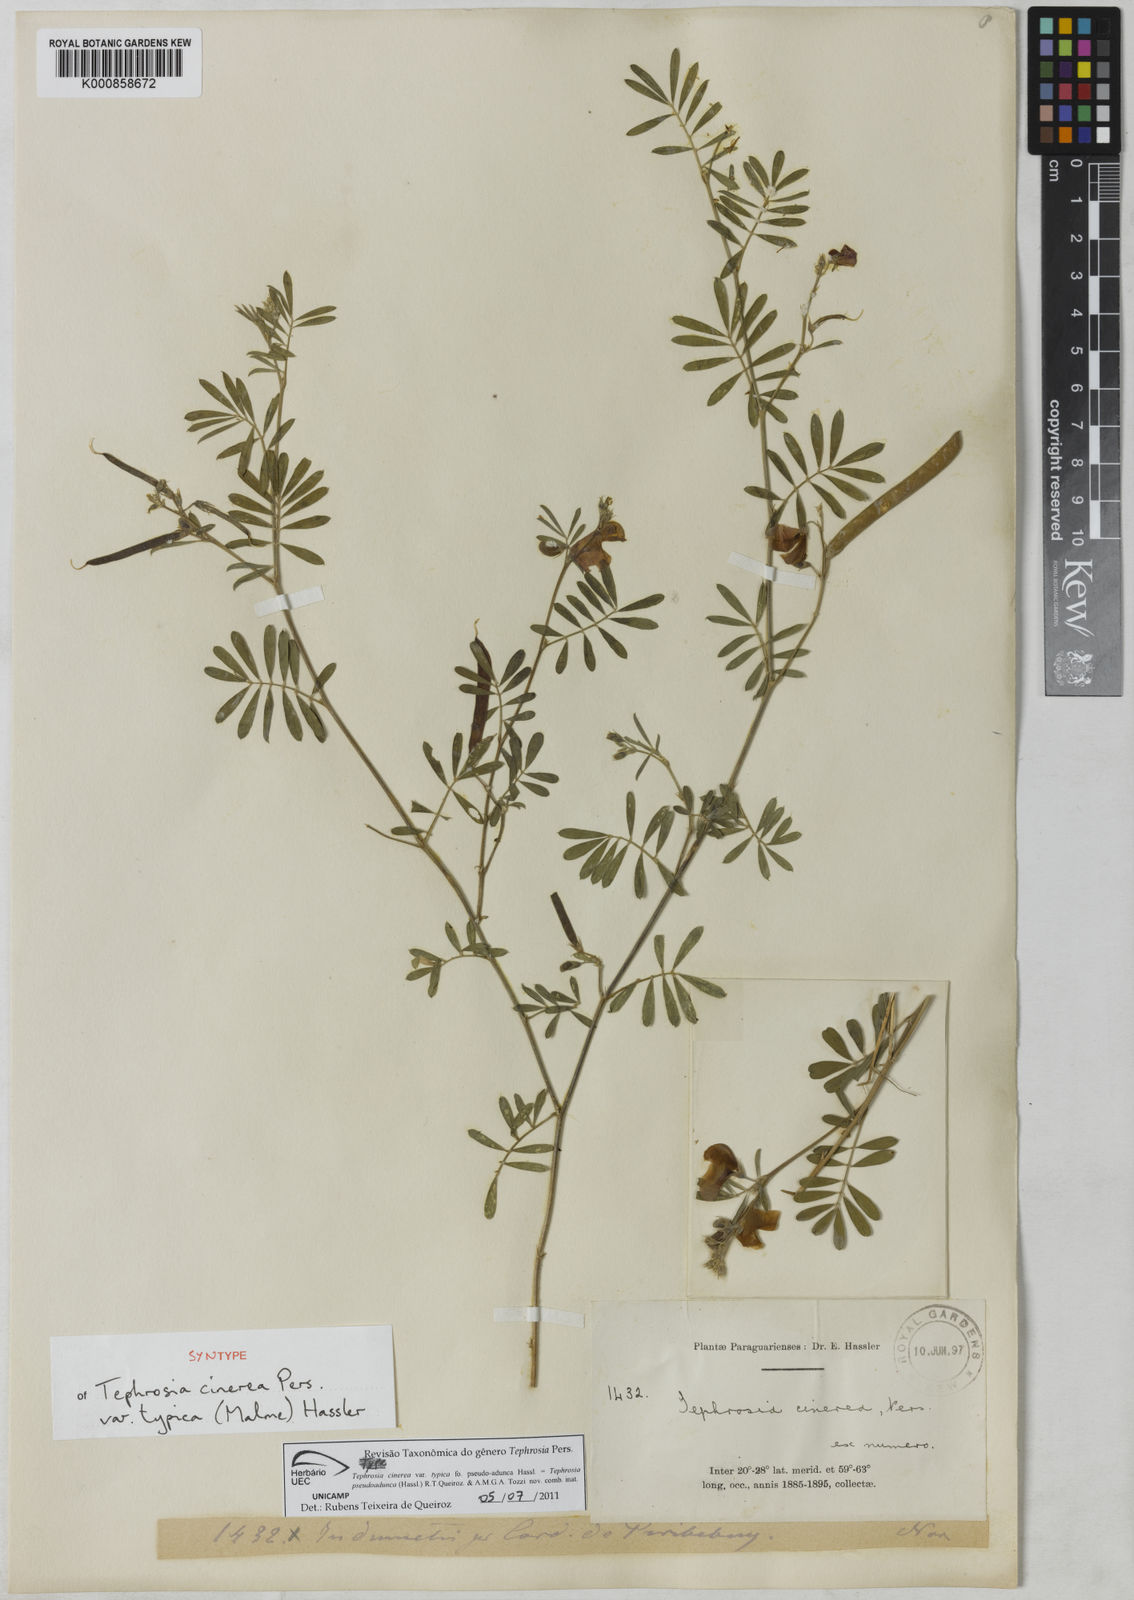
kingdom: Plantae
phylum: Tracheophyta
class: Magnoliopsida
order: Fabales
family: Fabaceae
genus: Tephrosia
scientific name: Tephrosia
